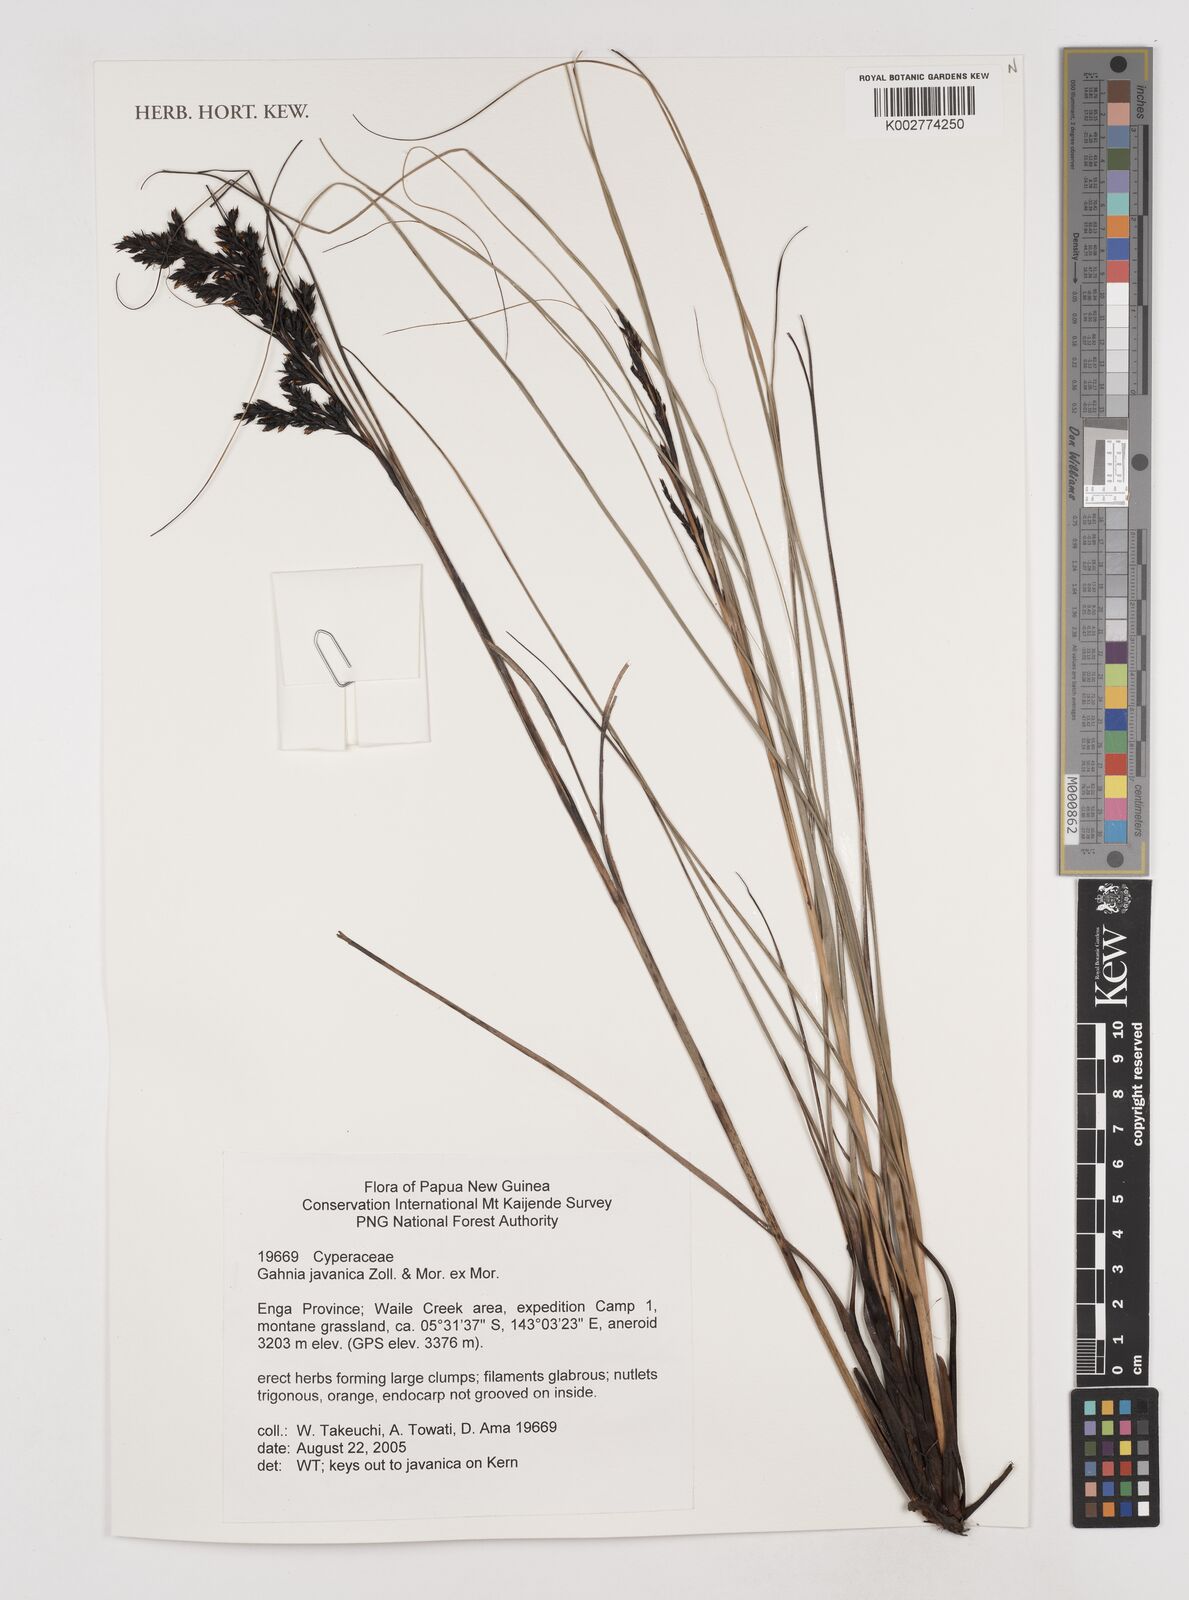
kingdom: Plantae
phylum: Tracheophyta
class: Liliopsida
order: Poales
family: Cyperaceae
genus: Gahnia
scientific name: Gahnia javanica
